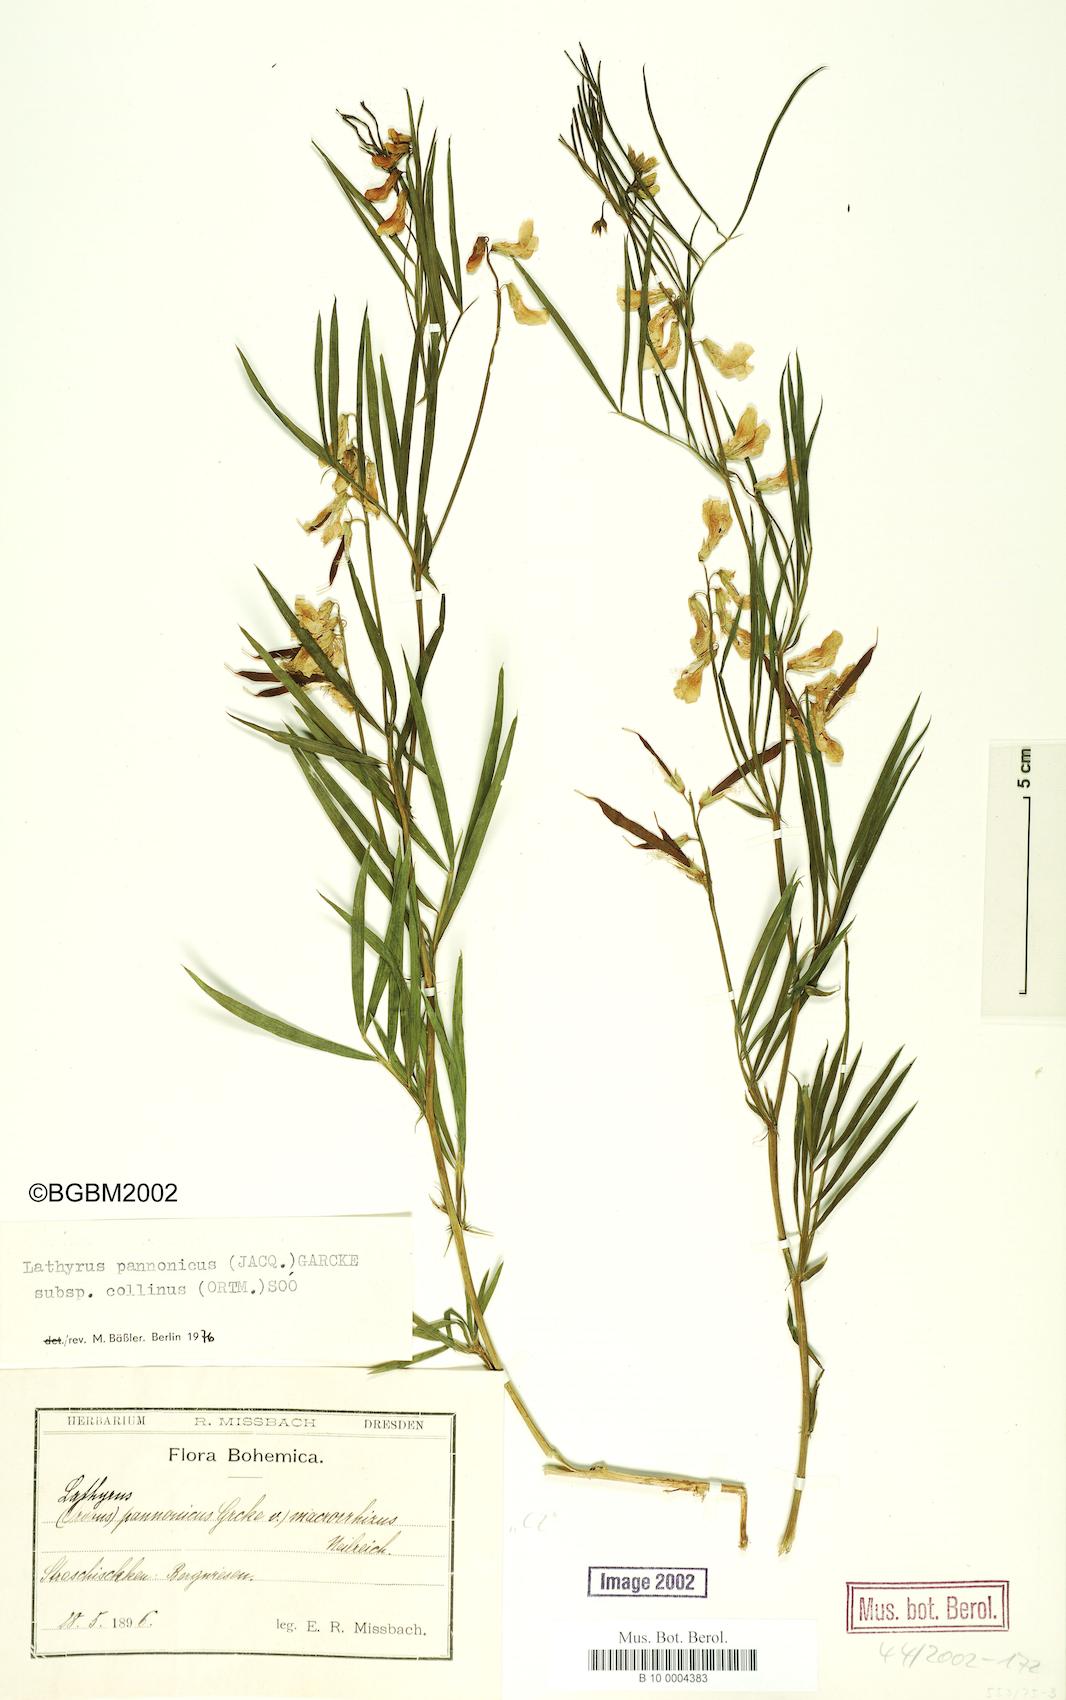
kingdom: Plantae
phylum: Tracheophyta
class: Magnoliopsida
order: Fabales
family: Fabaceae
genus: Lathyrus
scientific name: Lathyrus pannonicus
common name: Pea
